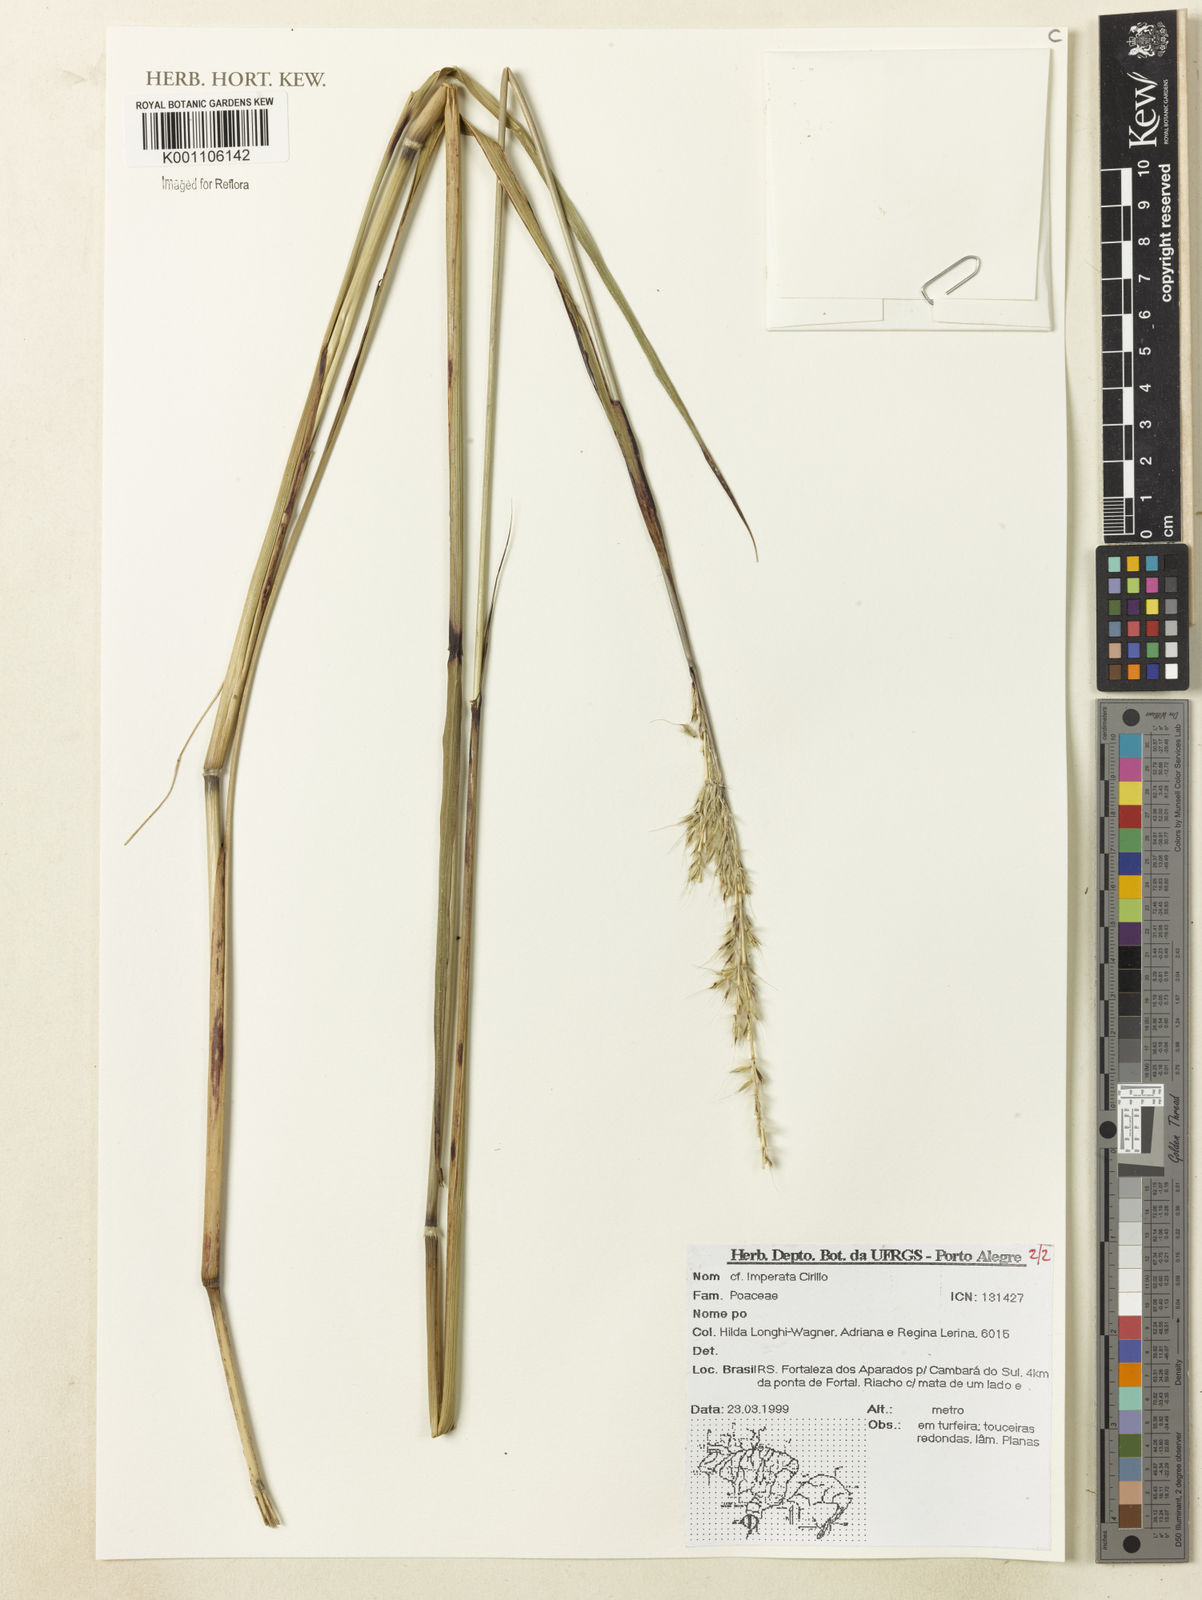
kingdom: Plantae
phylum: Tracheophyta
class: Liliopsida
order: Poales
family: Poaceae
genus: Imperata
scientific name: Imperata
